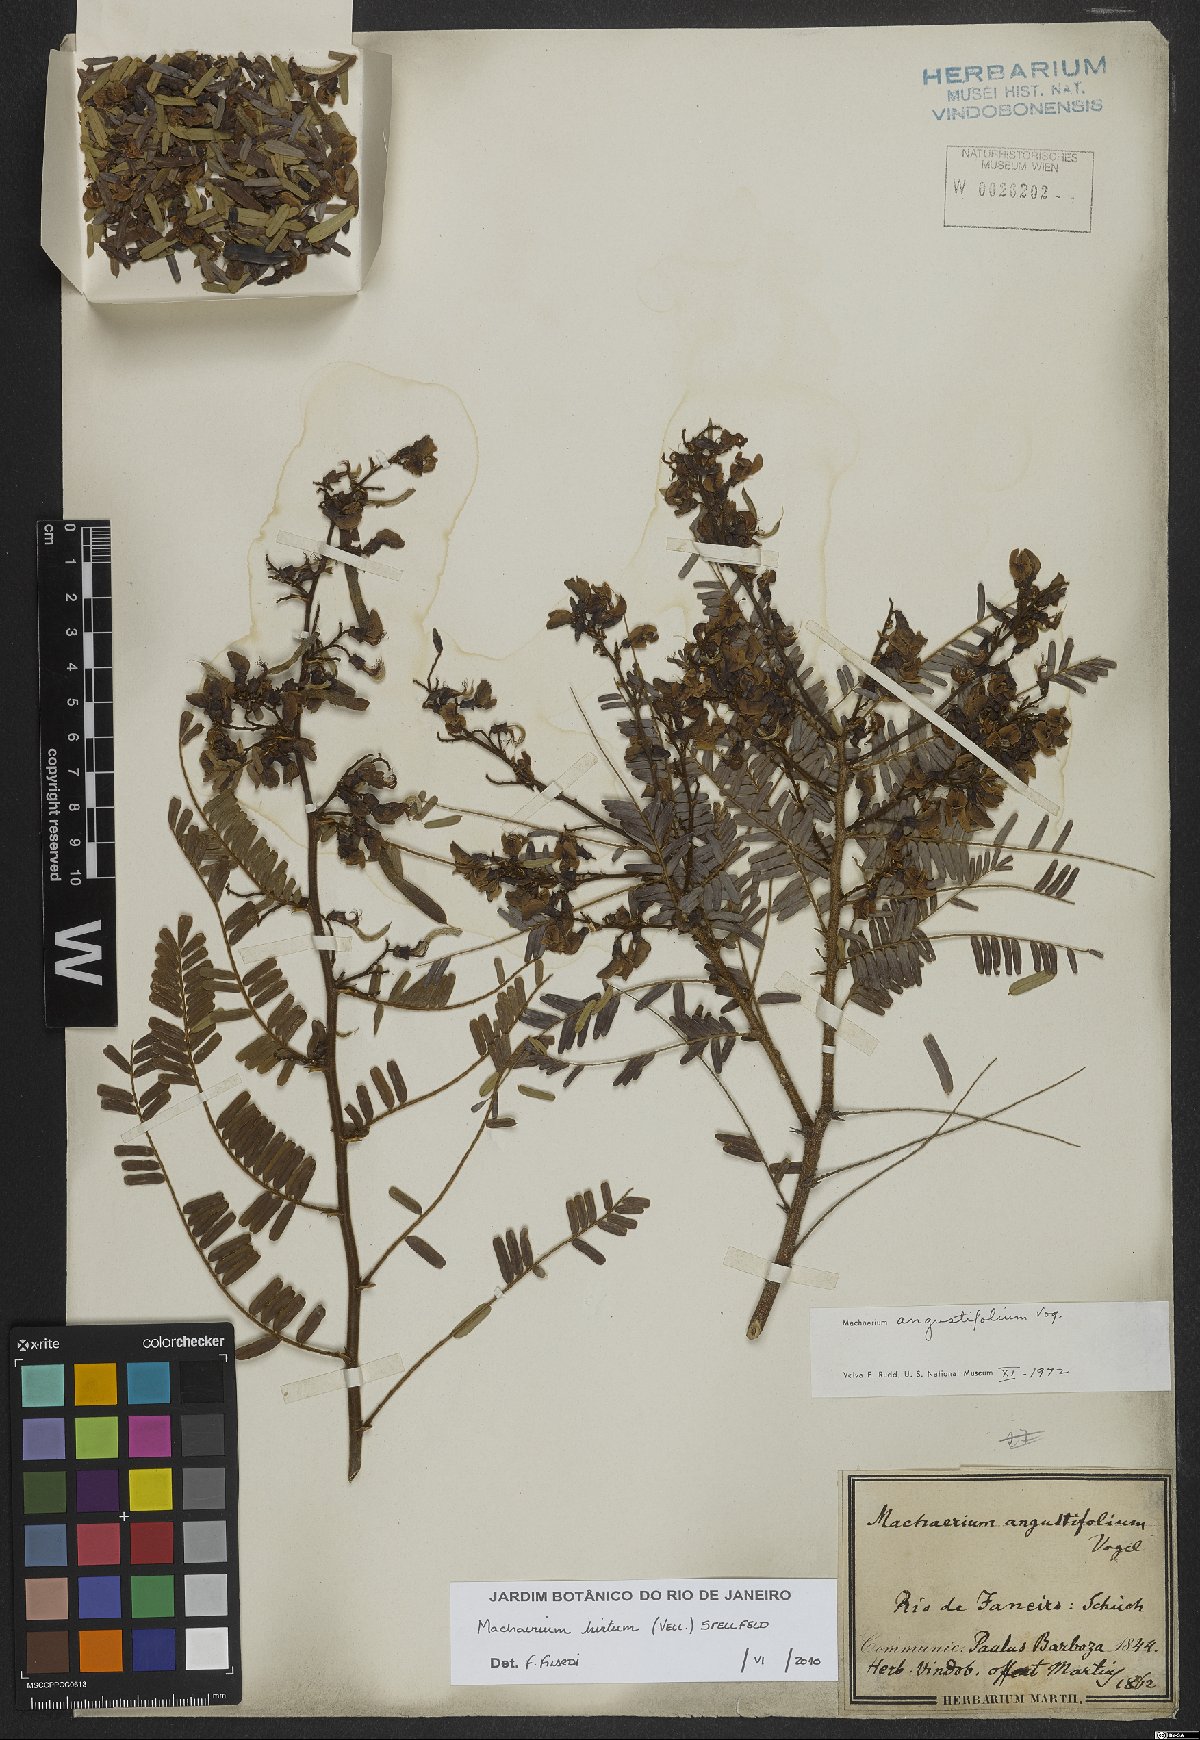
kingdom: Plantae
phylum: Tracheophyta
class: Magnoliopsida
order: Fabales
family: Fabaceae
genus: Machaerium
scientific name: Machaerium hirtum
